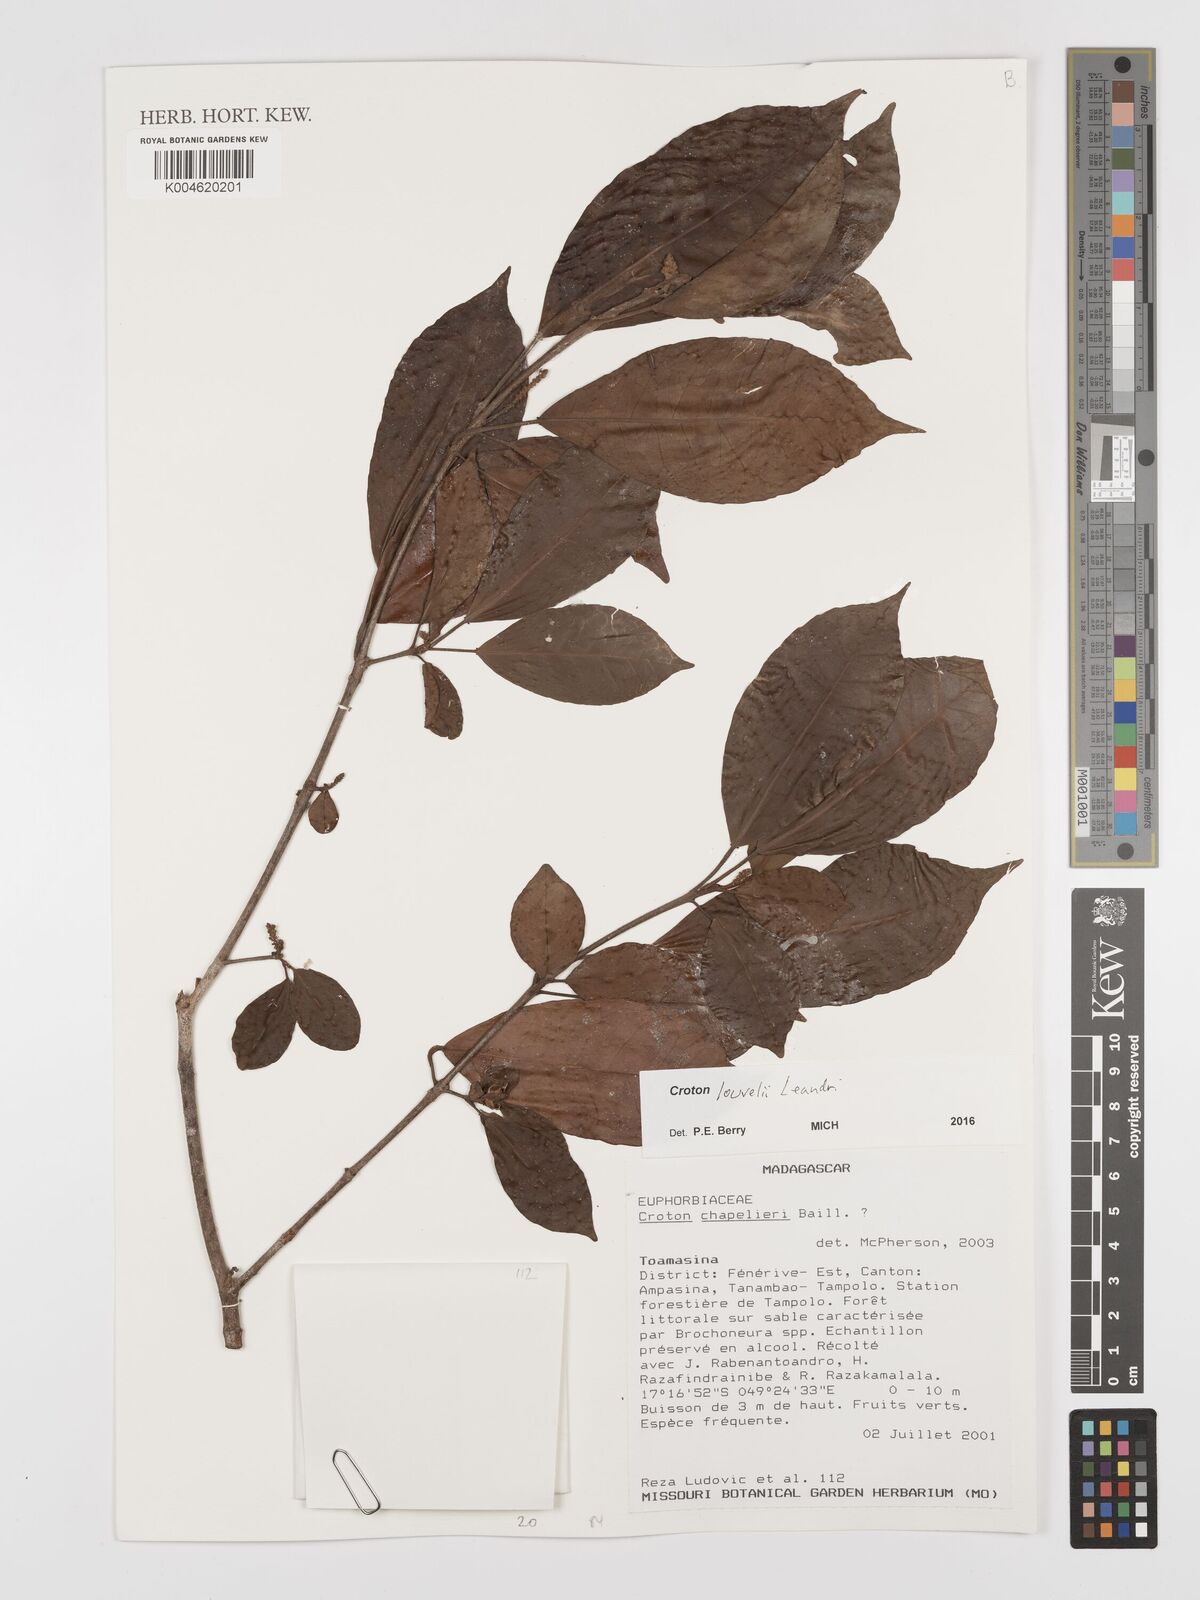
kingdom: Plantae
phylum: Tracheophyta
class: Magnoliopsida
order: Malpighiales
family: Euphorbiaceae
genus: Croton
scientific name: Croton chapelieri
